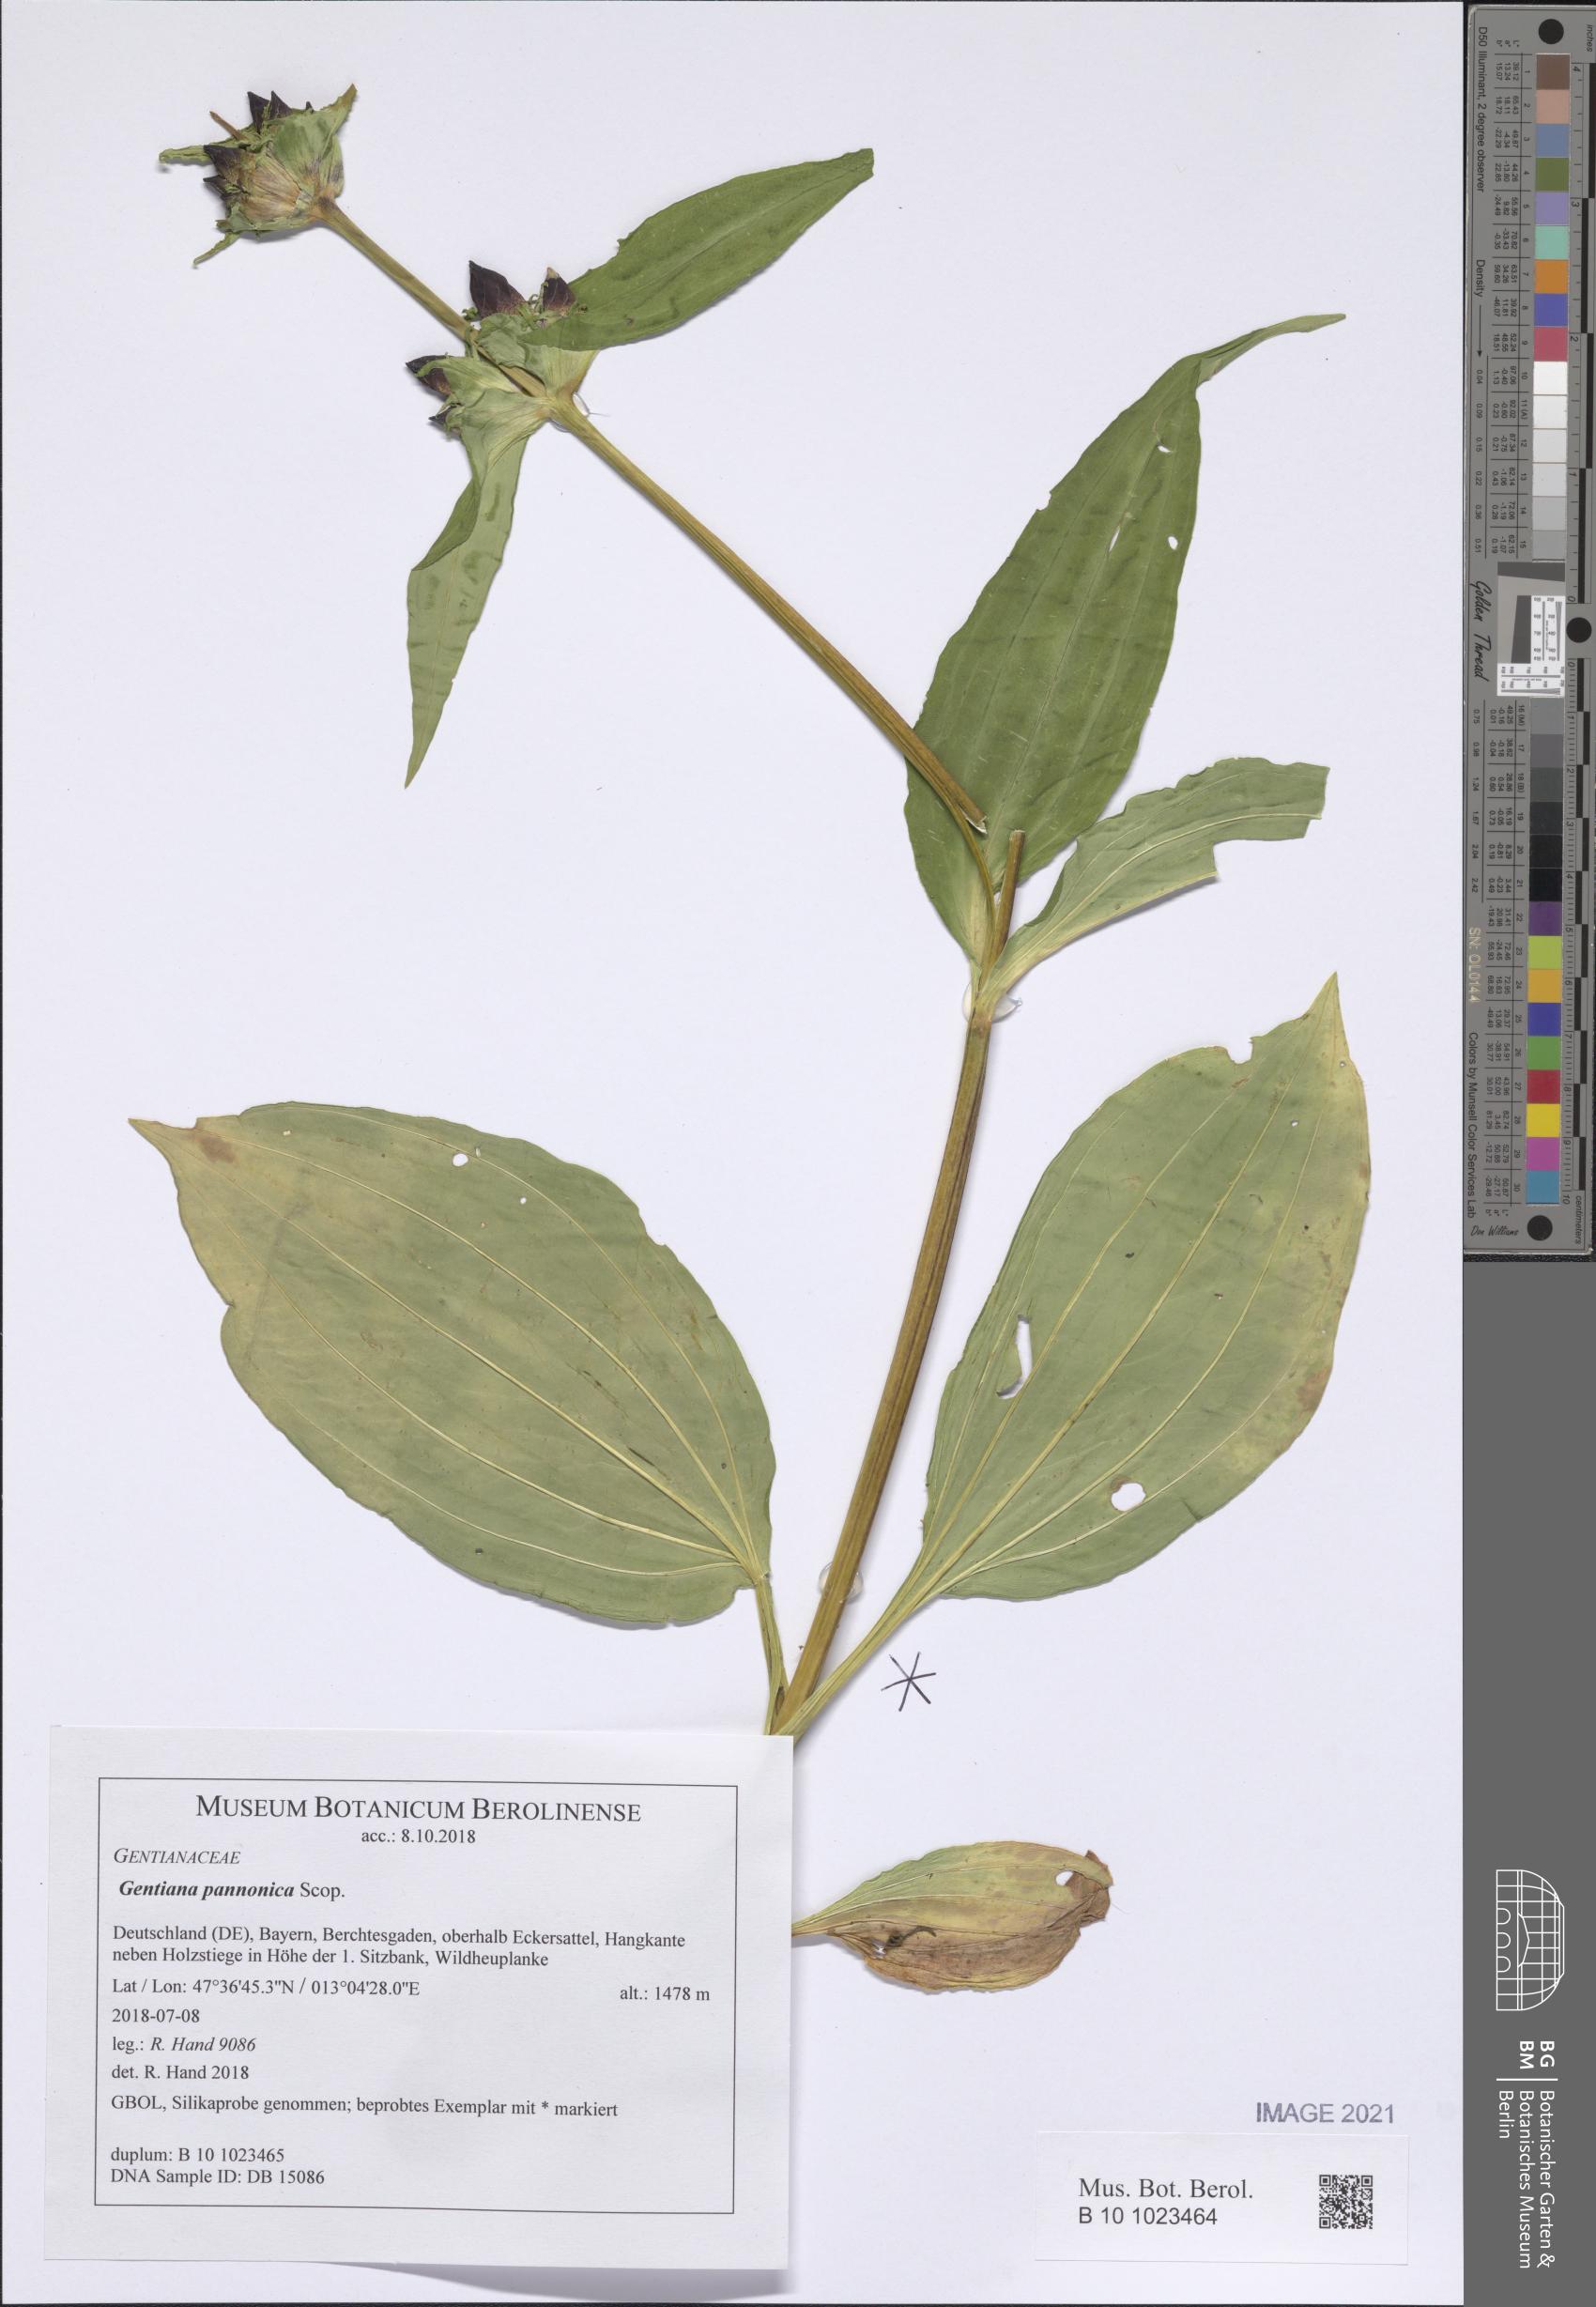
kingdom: Plantae
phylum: Tracheophyta
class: Magnoliopsida
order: Gentianales
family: Gentianaceae
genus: Gentiana
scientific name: Gentiana pannonica
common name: Hungarian gentian
